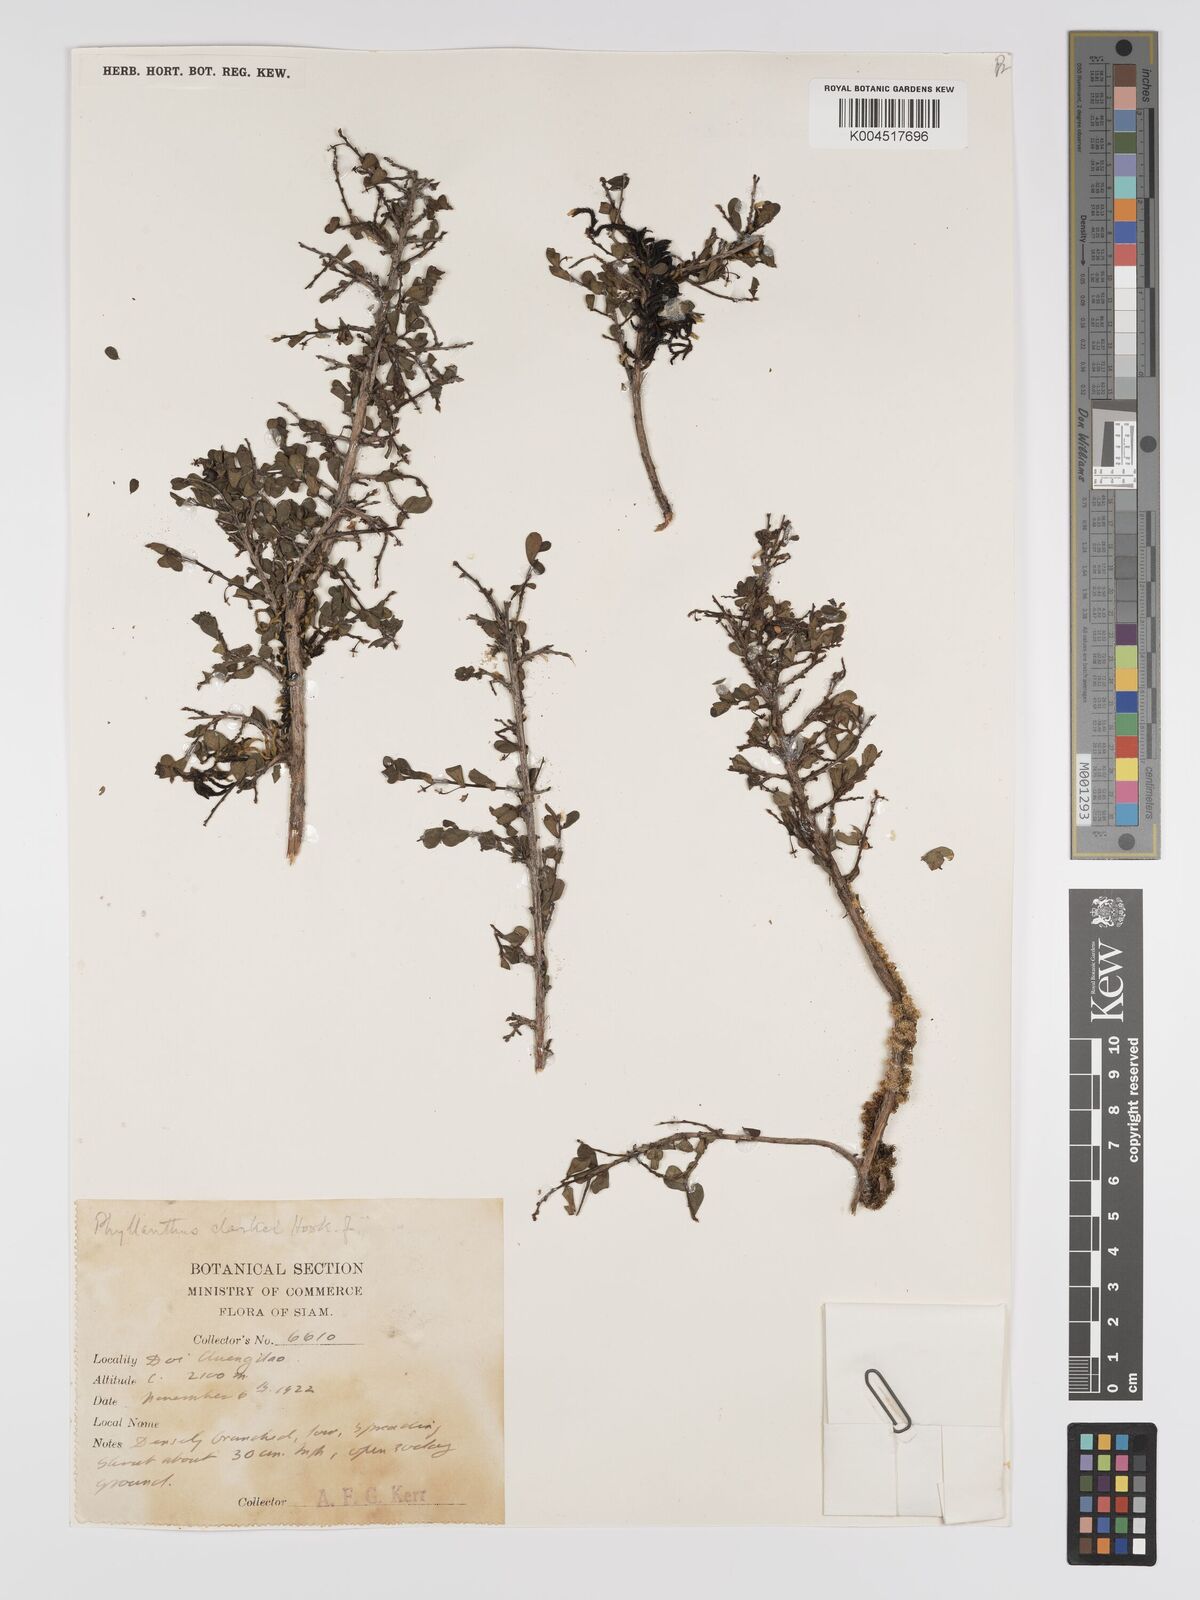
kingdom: Plantae
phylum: Tracheophyta
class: Magnoliopsida
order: Malpighiales
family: Phyllanthaceae
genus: Phyllanthus
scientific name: Phyllanthus clarkei
